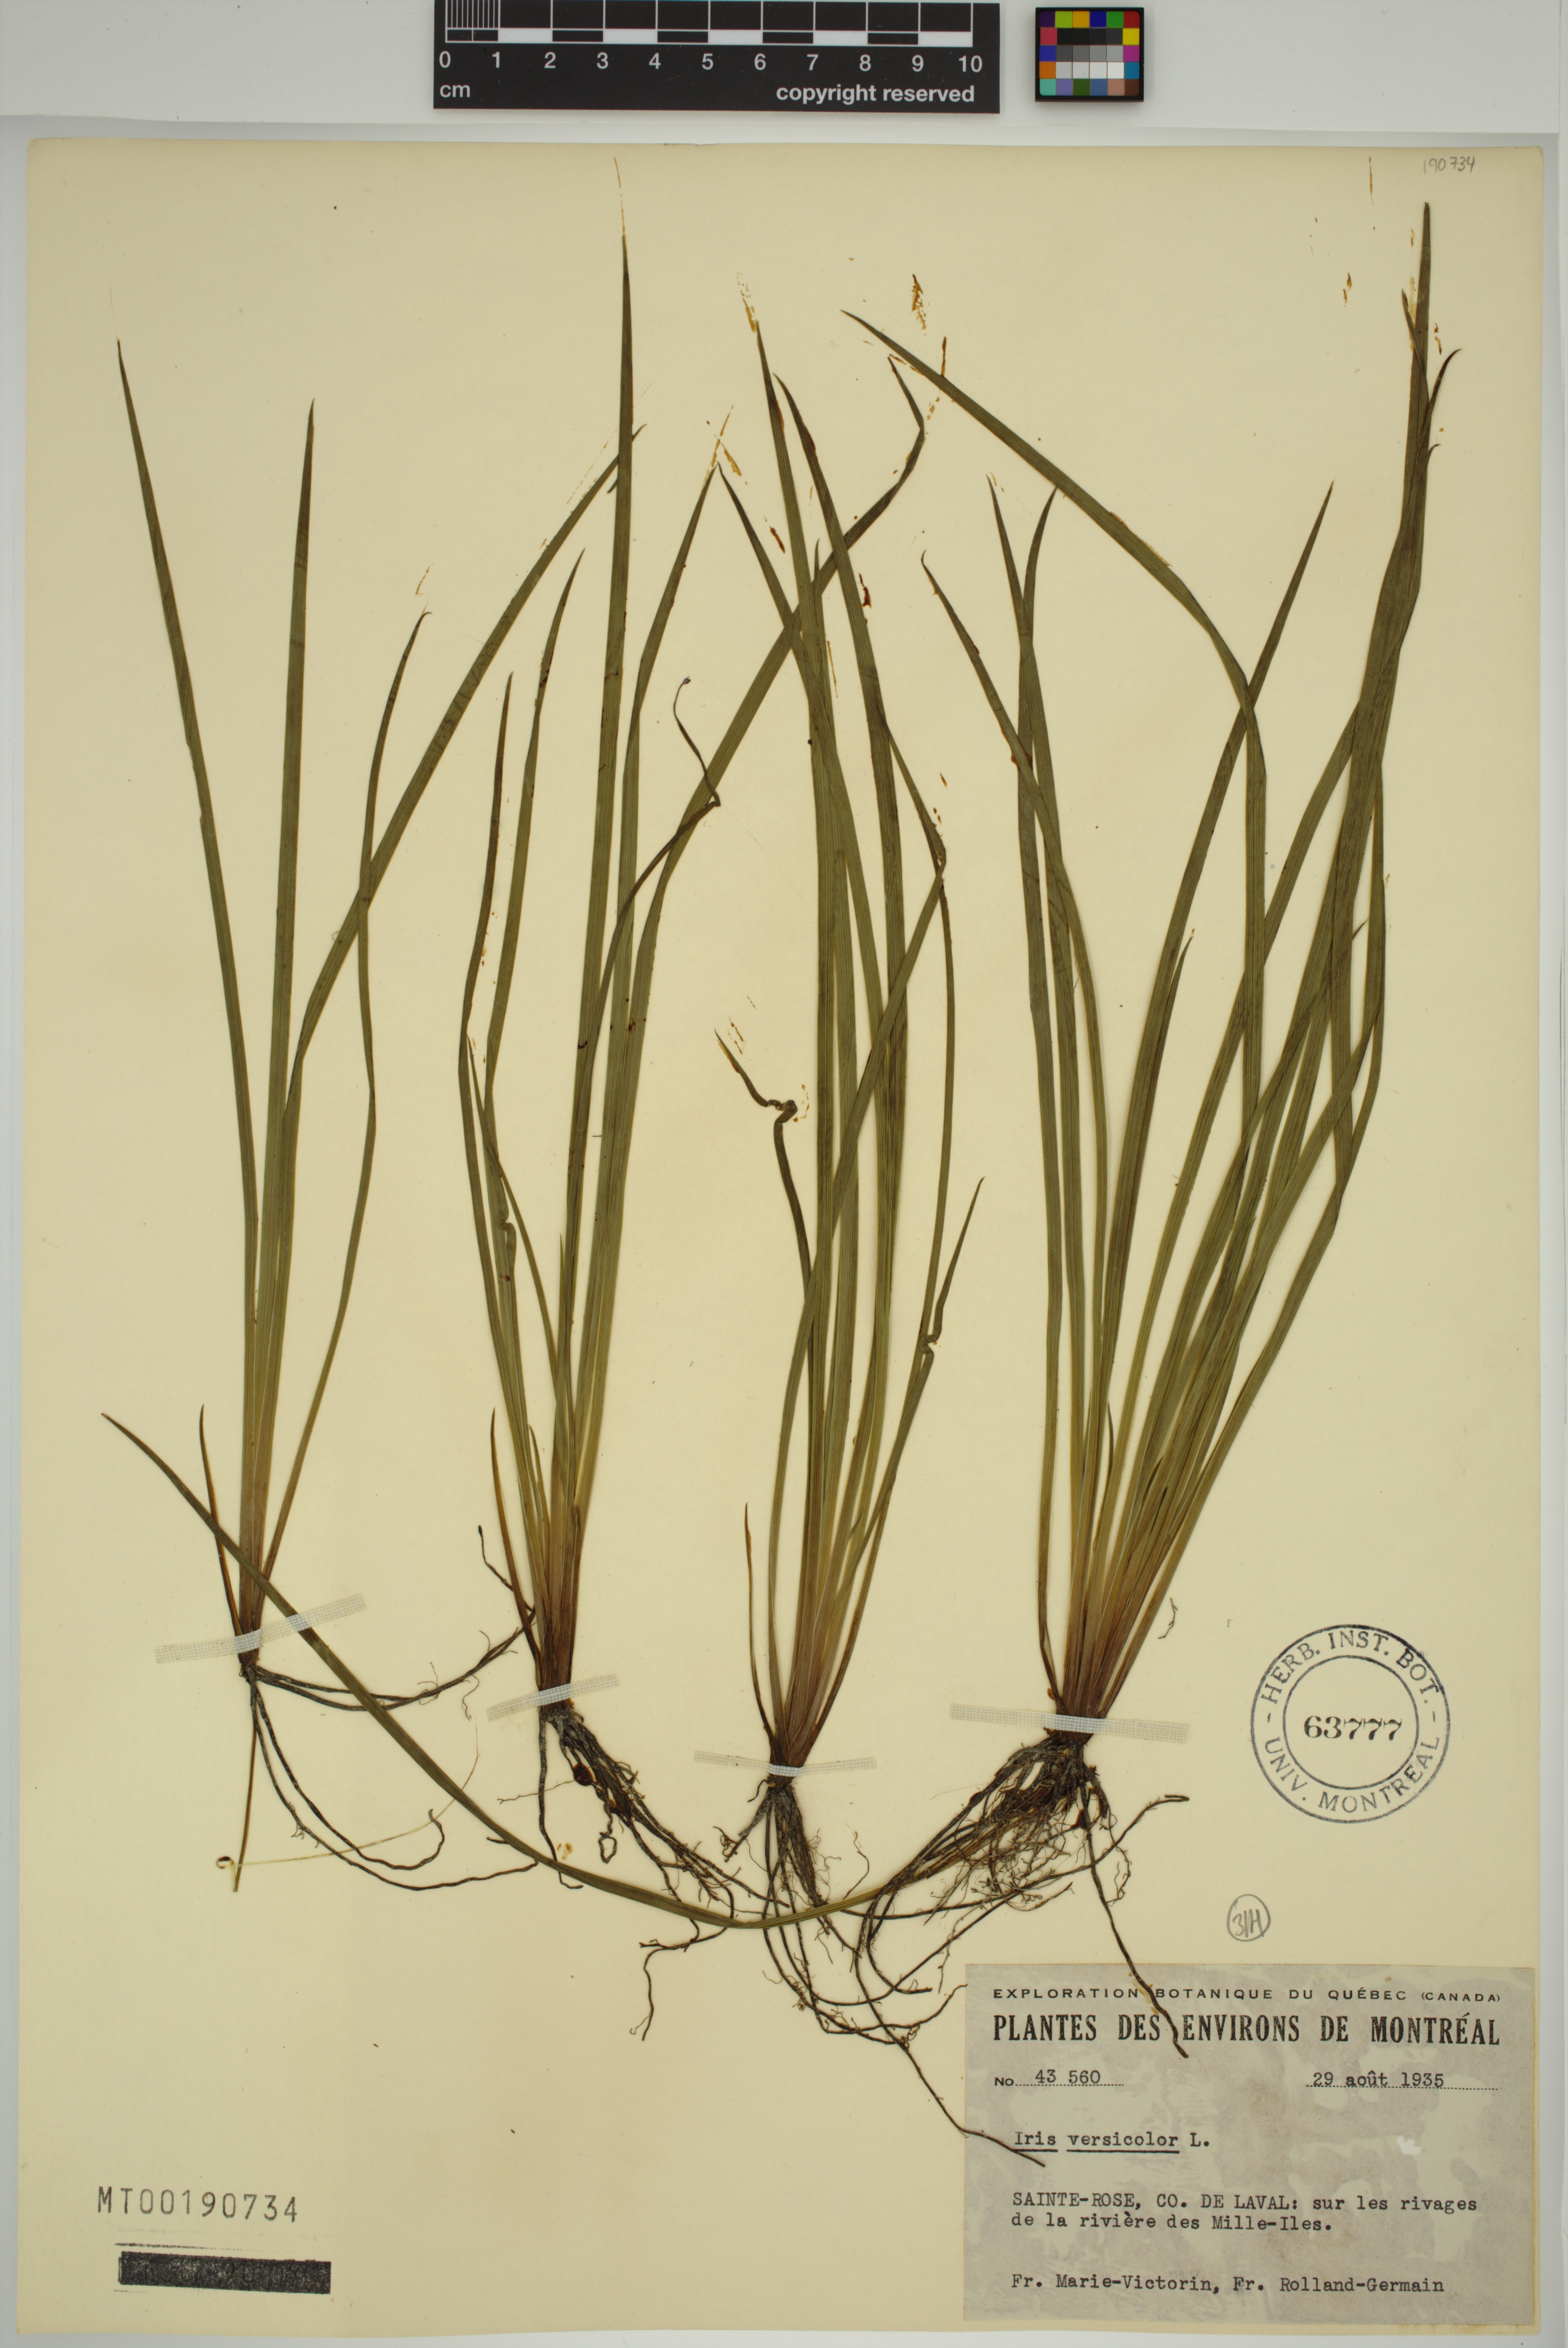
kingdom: Plantae
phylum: Tracheophyta
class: Liliopsida
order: Asparagales
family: Iridaceae
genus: Iris
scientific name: Iris versicolor
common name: Purple iris
